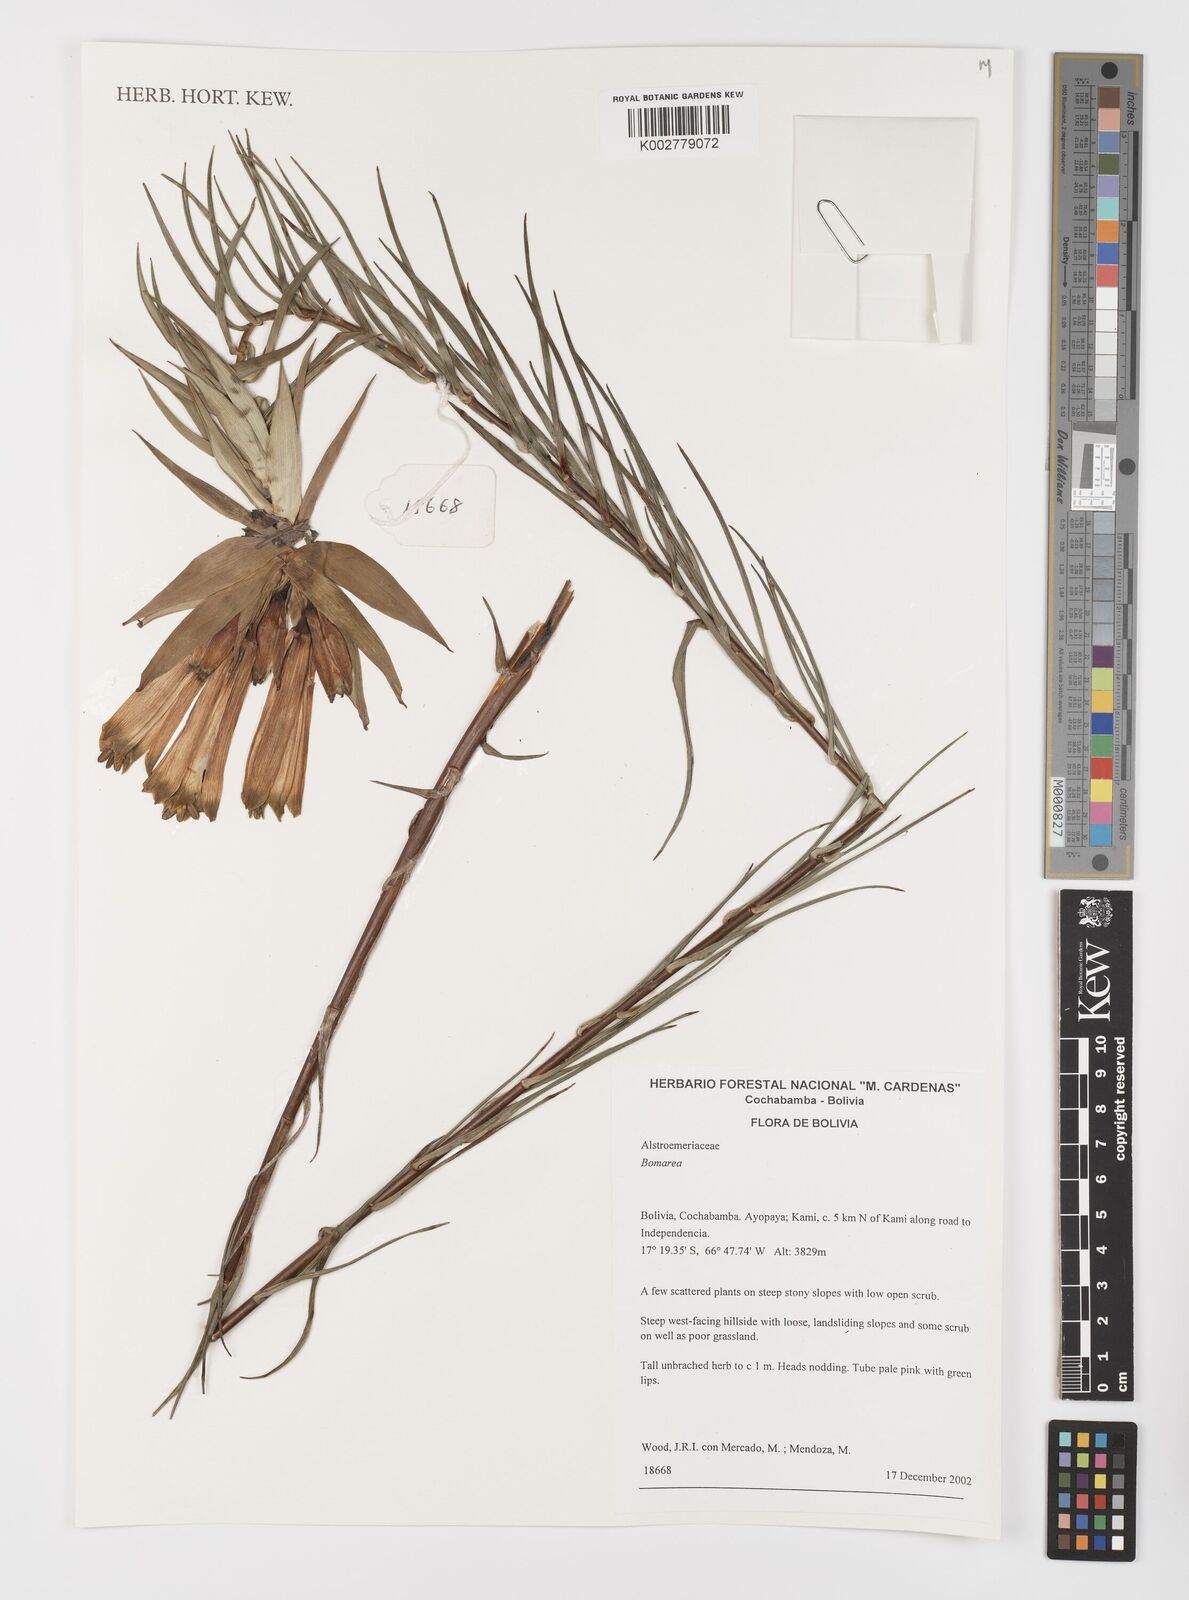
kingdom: Plantae
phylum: Tracheophyta
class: Liliopsida
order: Liliales
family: Alstroemeriaceae
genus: Bomarea
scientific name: Bomarea
